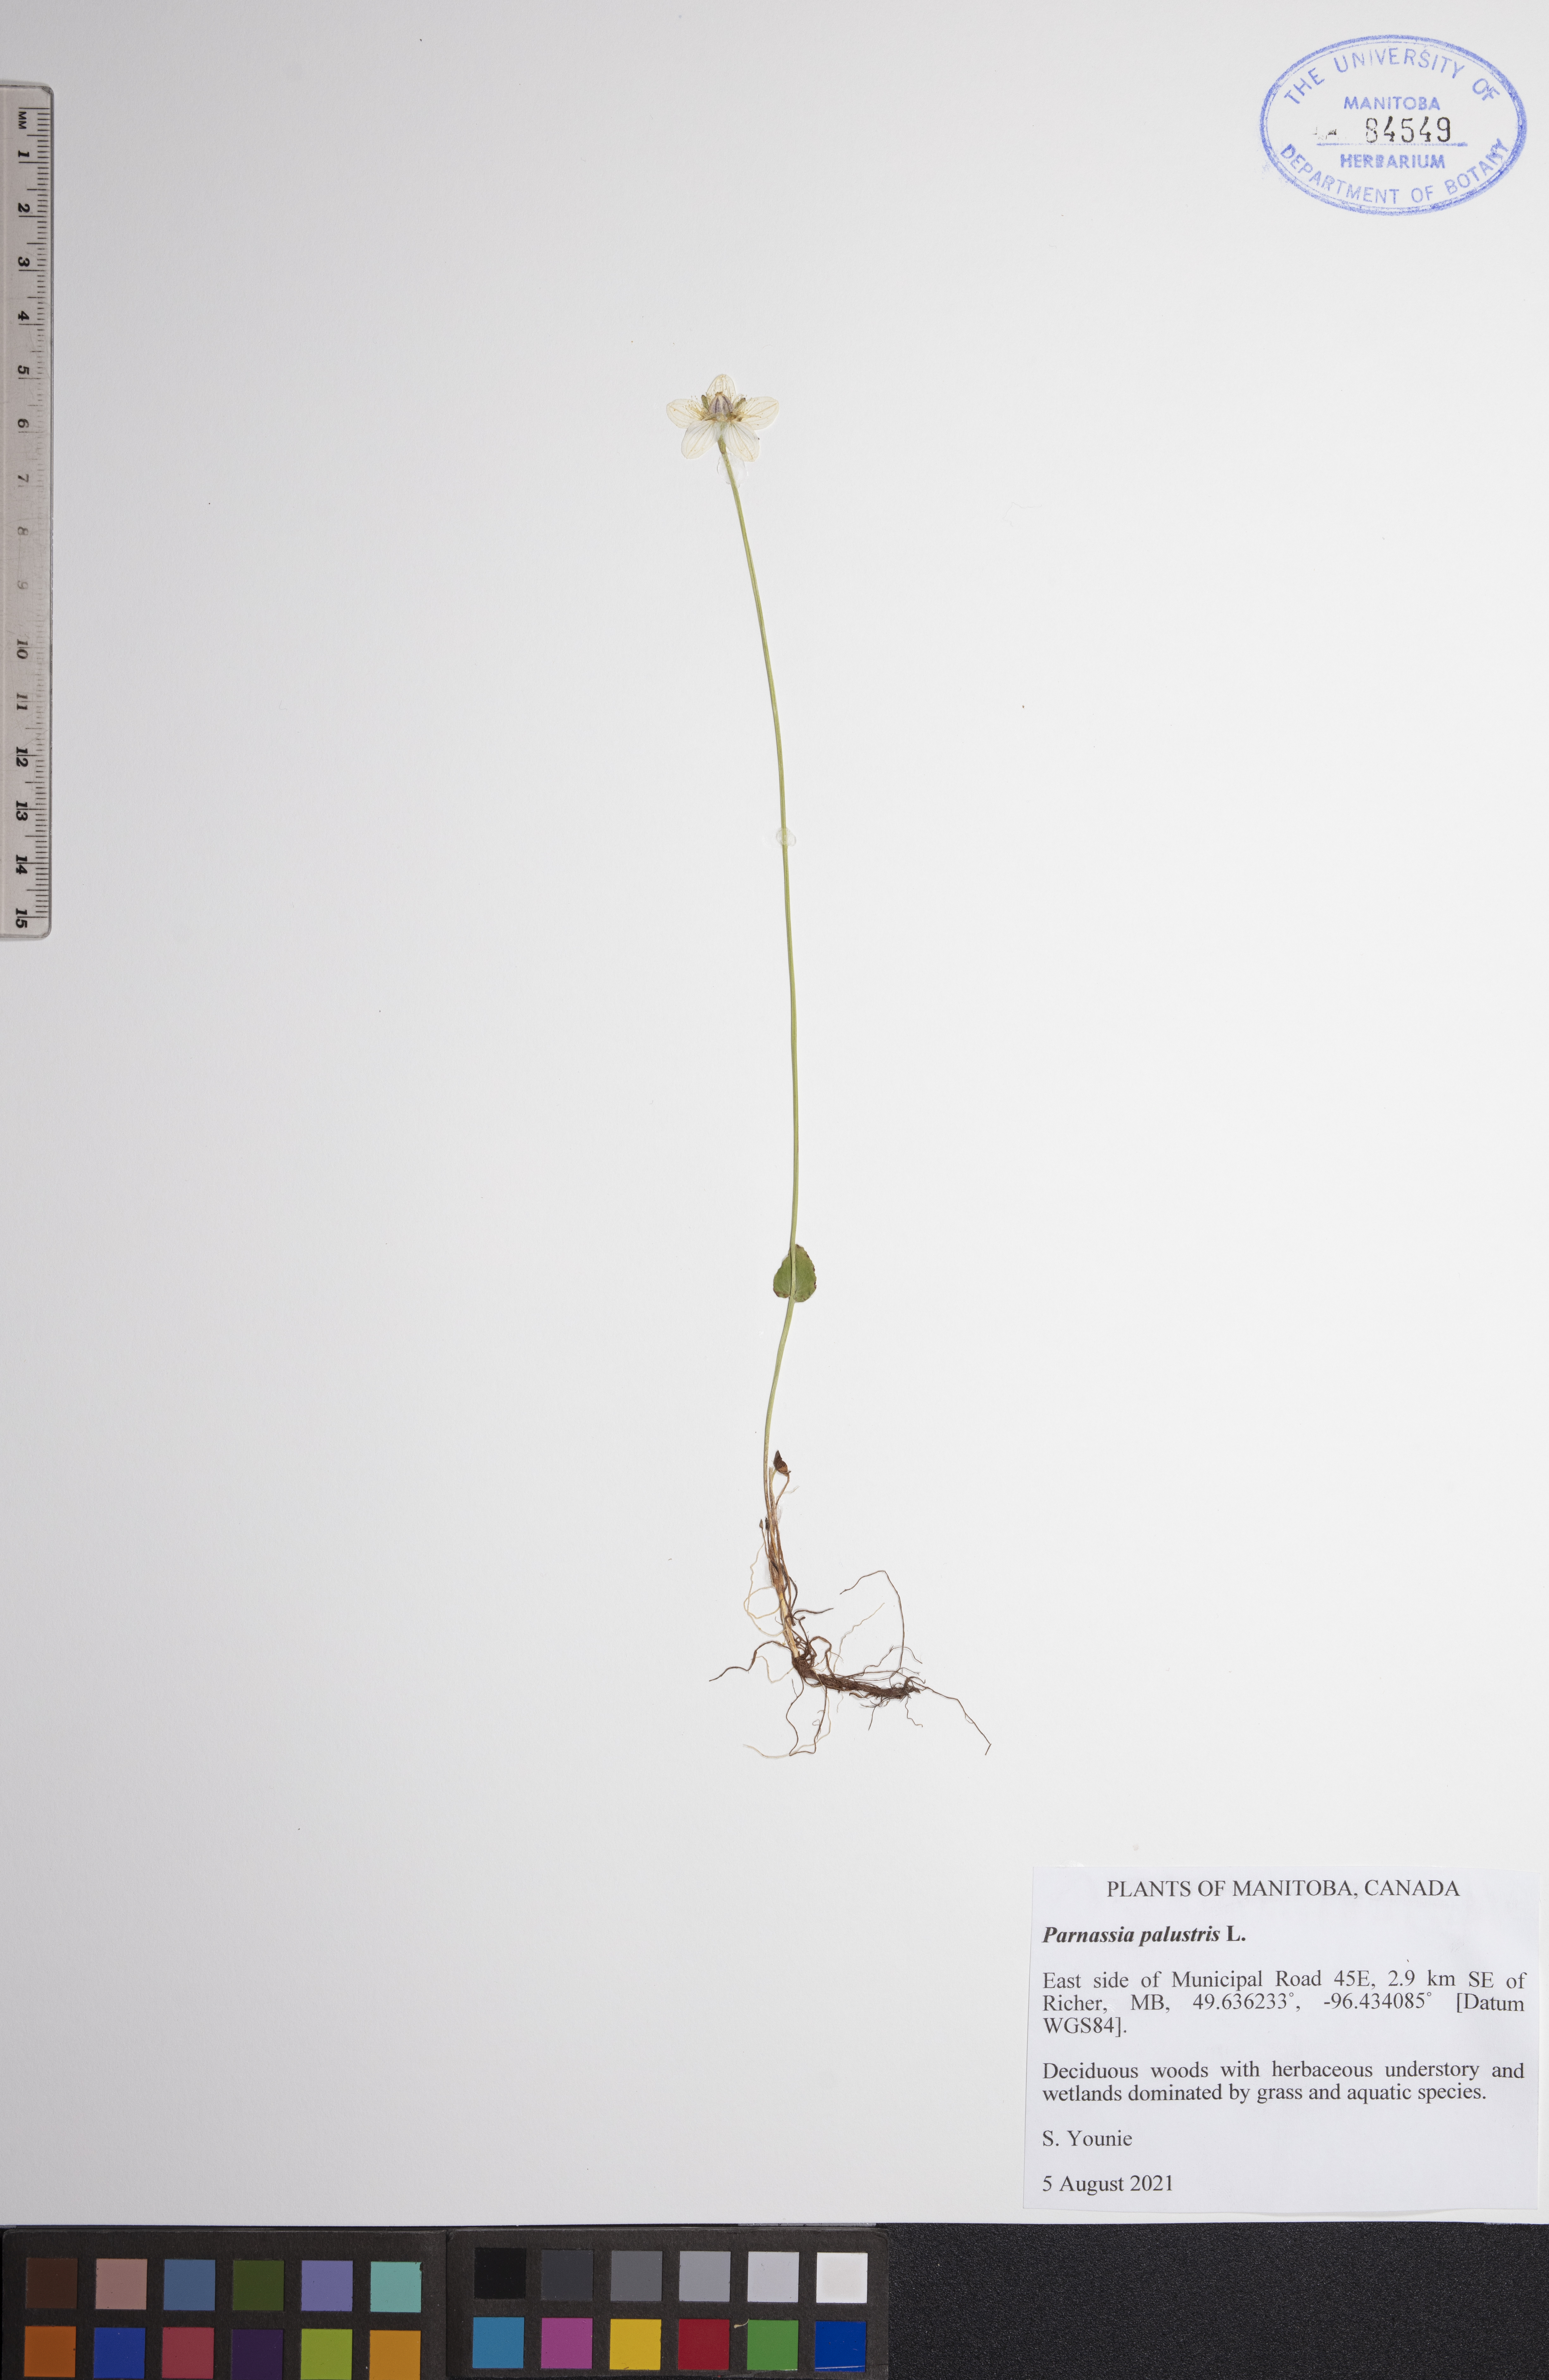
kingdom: Plantae
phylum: Tracheophyta
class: Magnoliopsida
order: Celastrales
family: Parnassiaceae
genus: Parnassia
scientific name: Parnassia palustris
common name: Grass-of-parnassus
